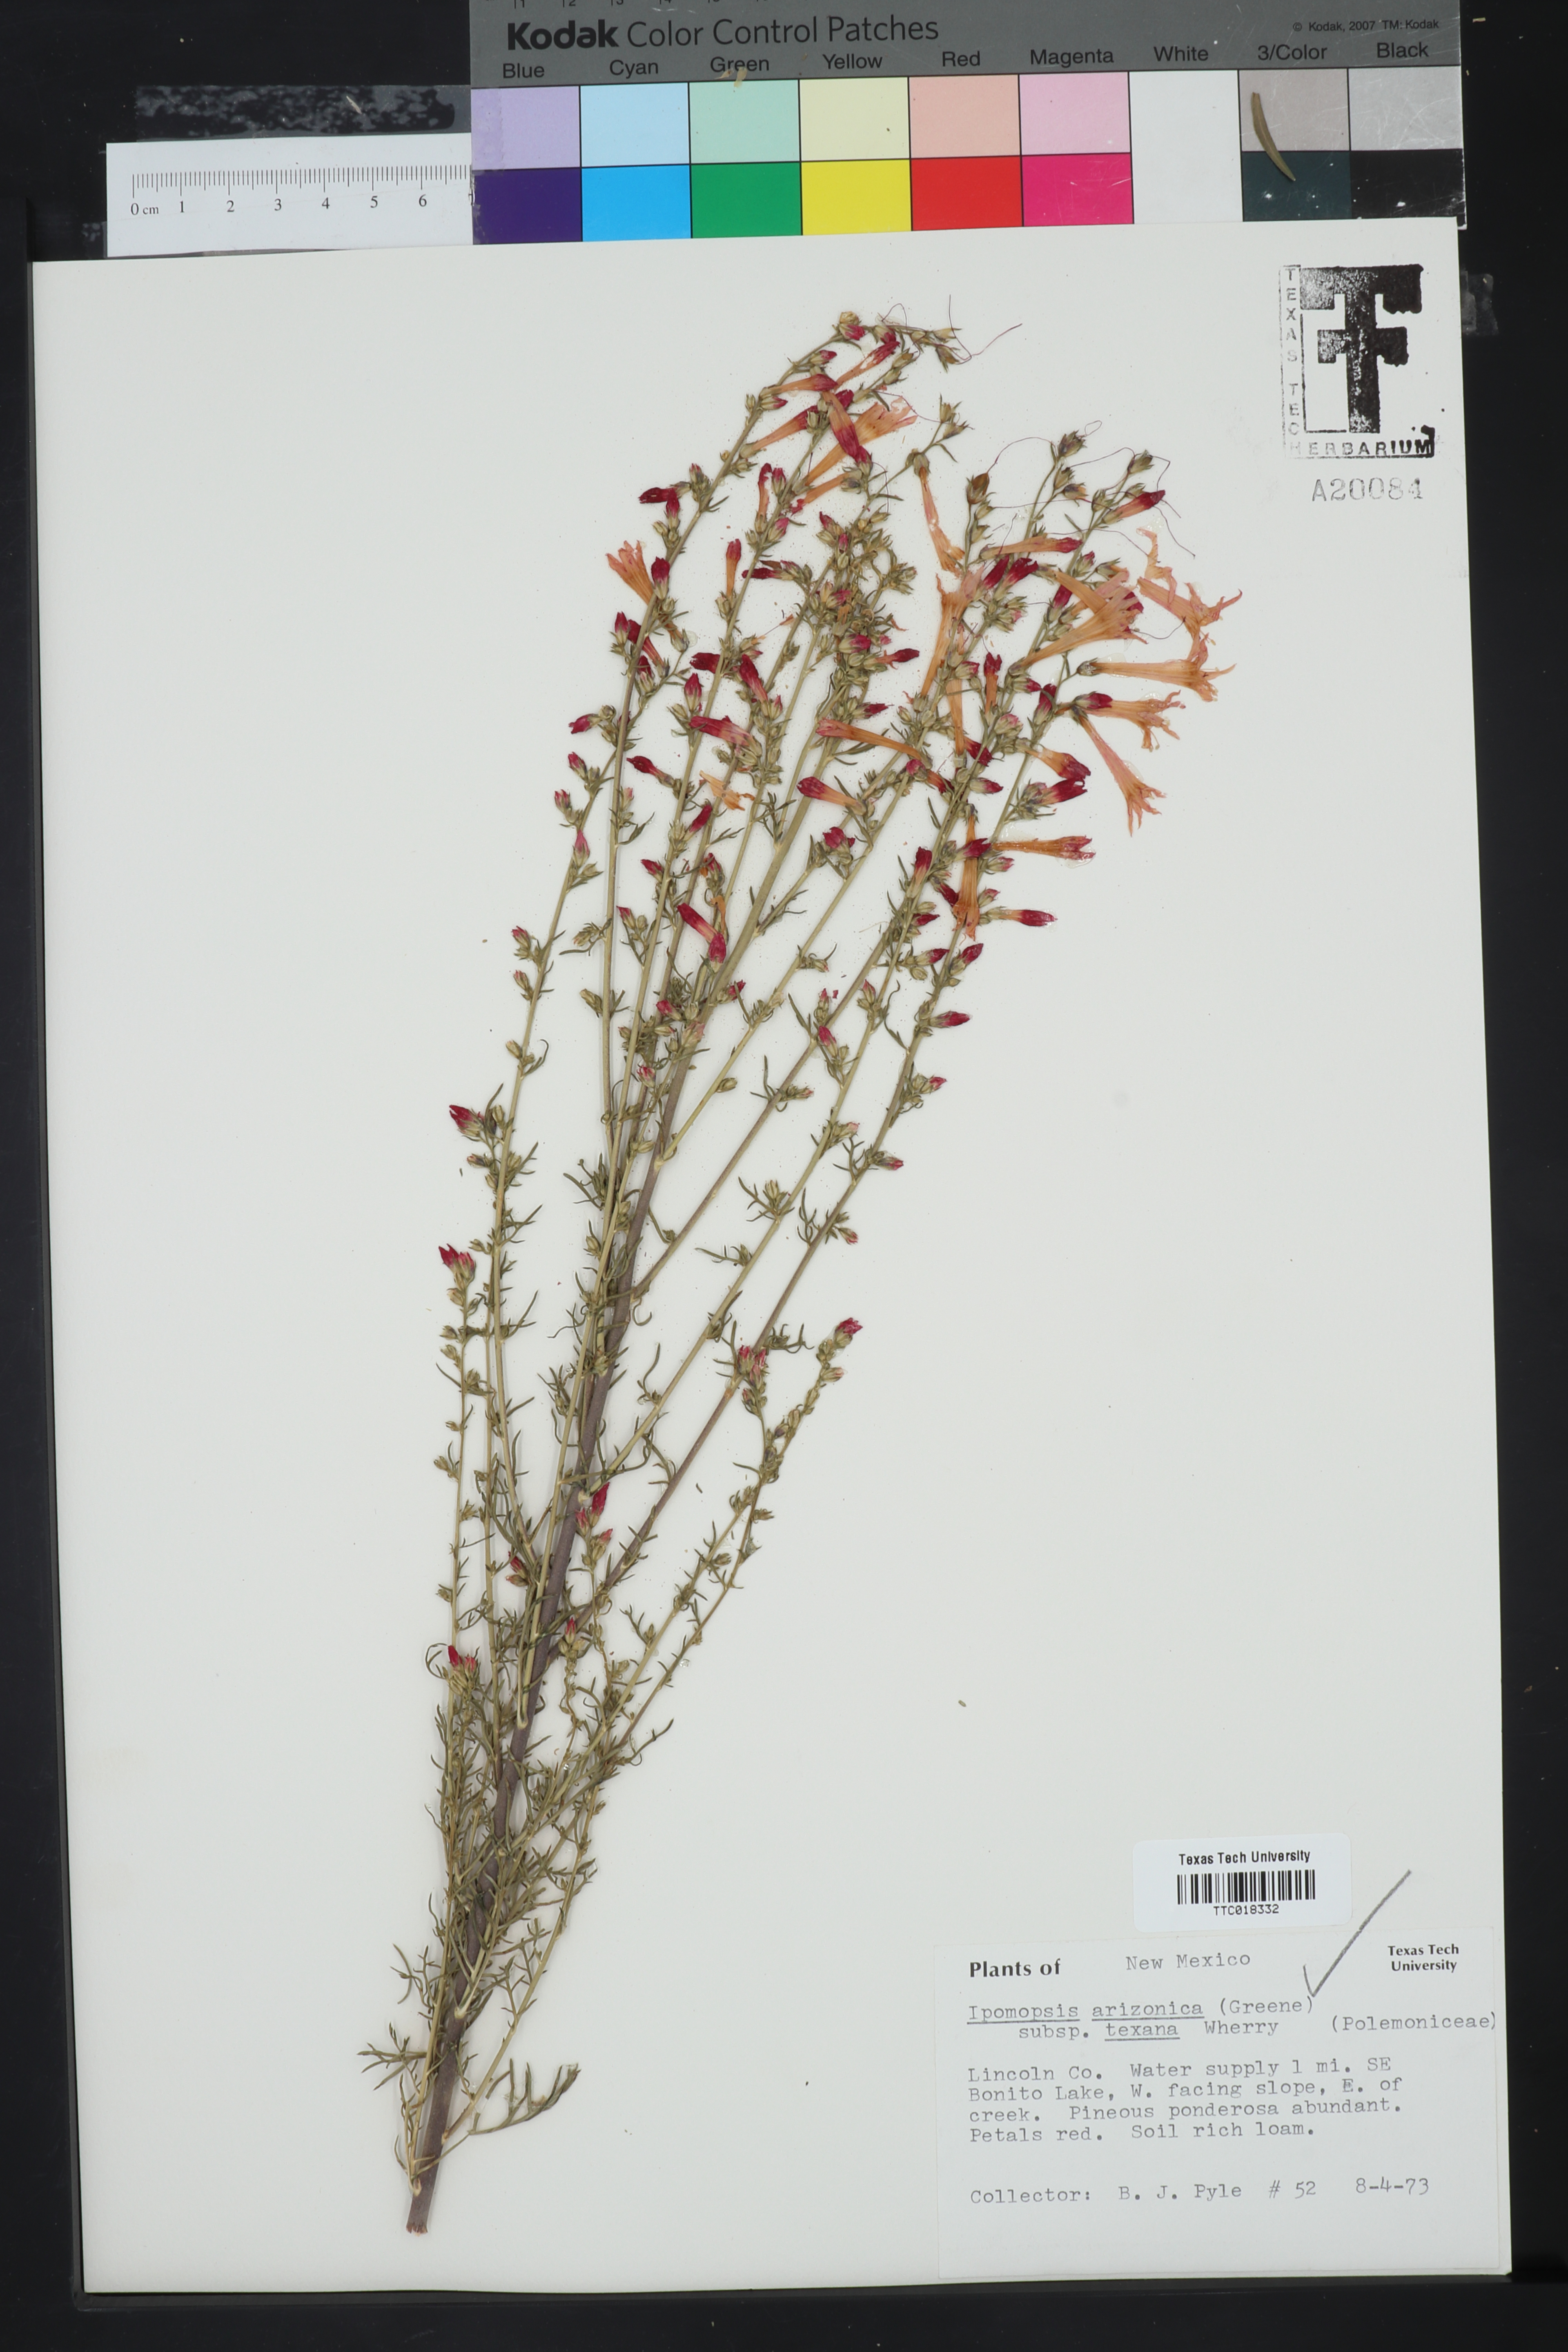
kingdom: Plantae
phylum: Tracheophyta
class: Magnoliopsida
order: Ericales
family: Polemoniaceae
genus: Ipomopsis
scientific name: Ipomopsis arizonica
